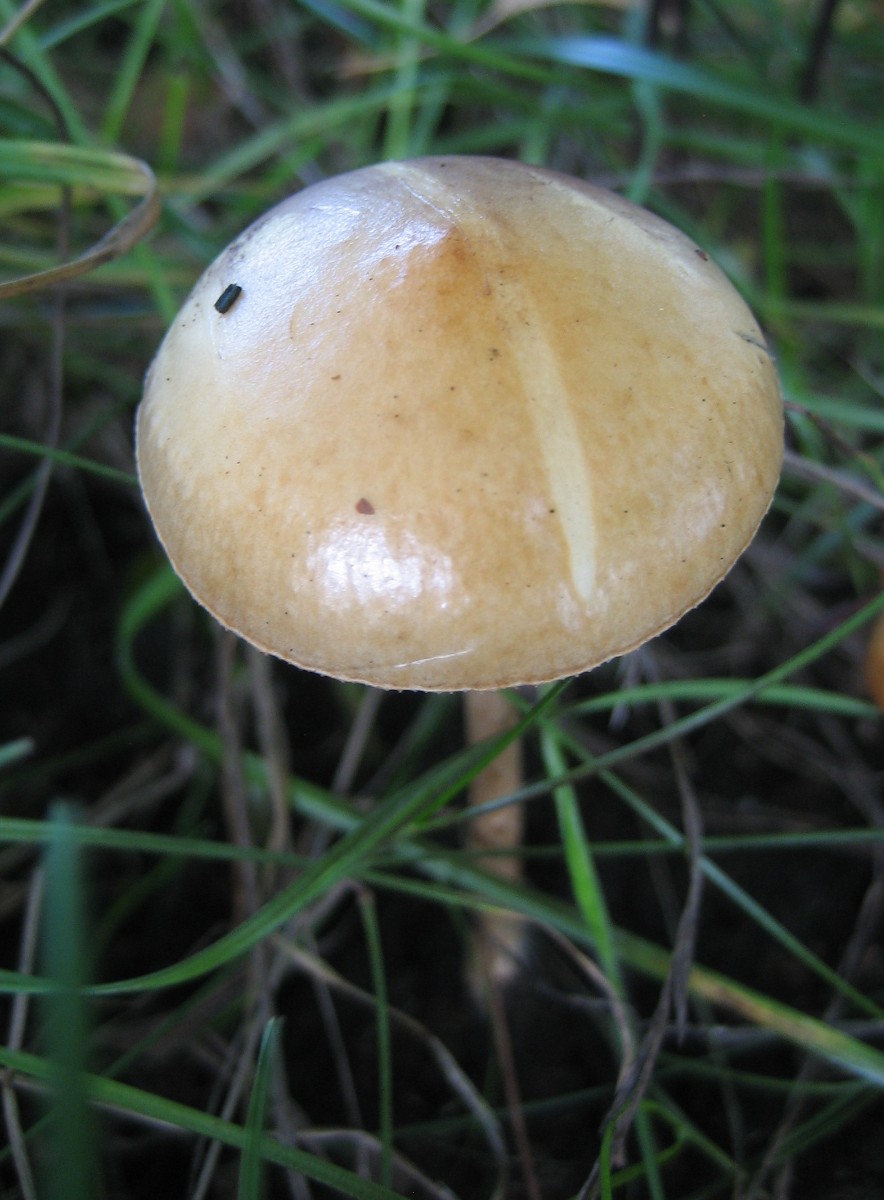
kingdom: Fungi
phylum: Basidiomycota
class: Agaricomycetes
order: Agaricales
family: Strophariaceae
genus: Protostropharia
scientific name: Protostropharia semiglobata
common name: halvkugleformet bredblad
